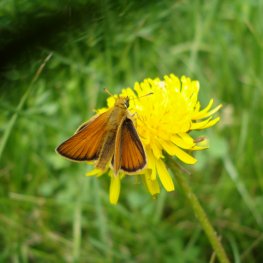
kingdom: Animalia
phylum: Arthropoda
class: Insecta
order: Lepidoptera
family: Hesperiidae
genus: Thymelicus
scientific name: Thymelicus lineola
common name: European Skipper
